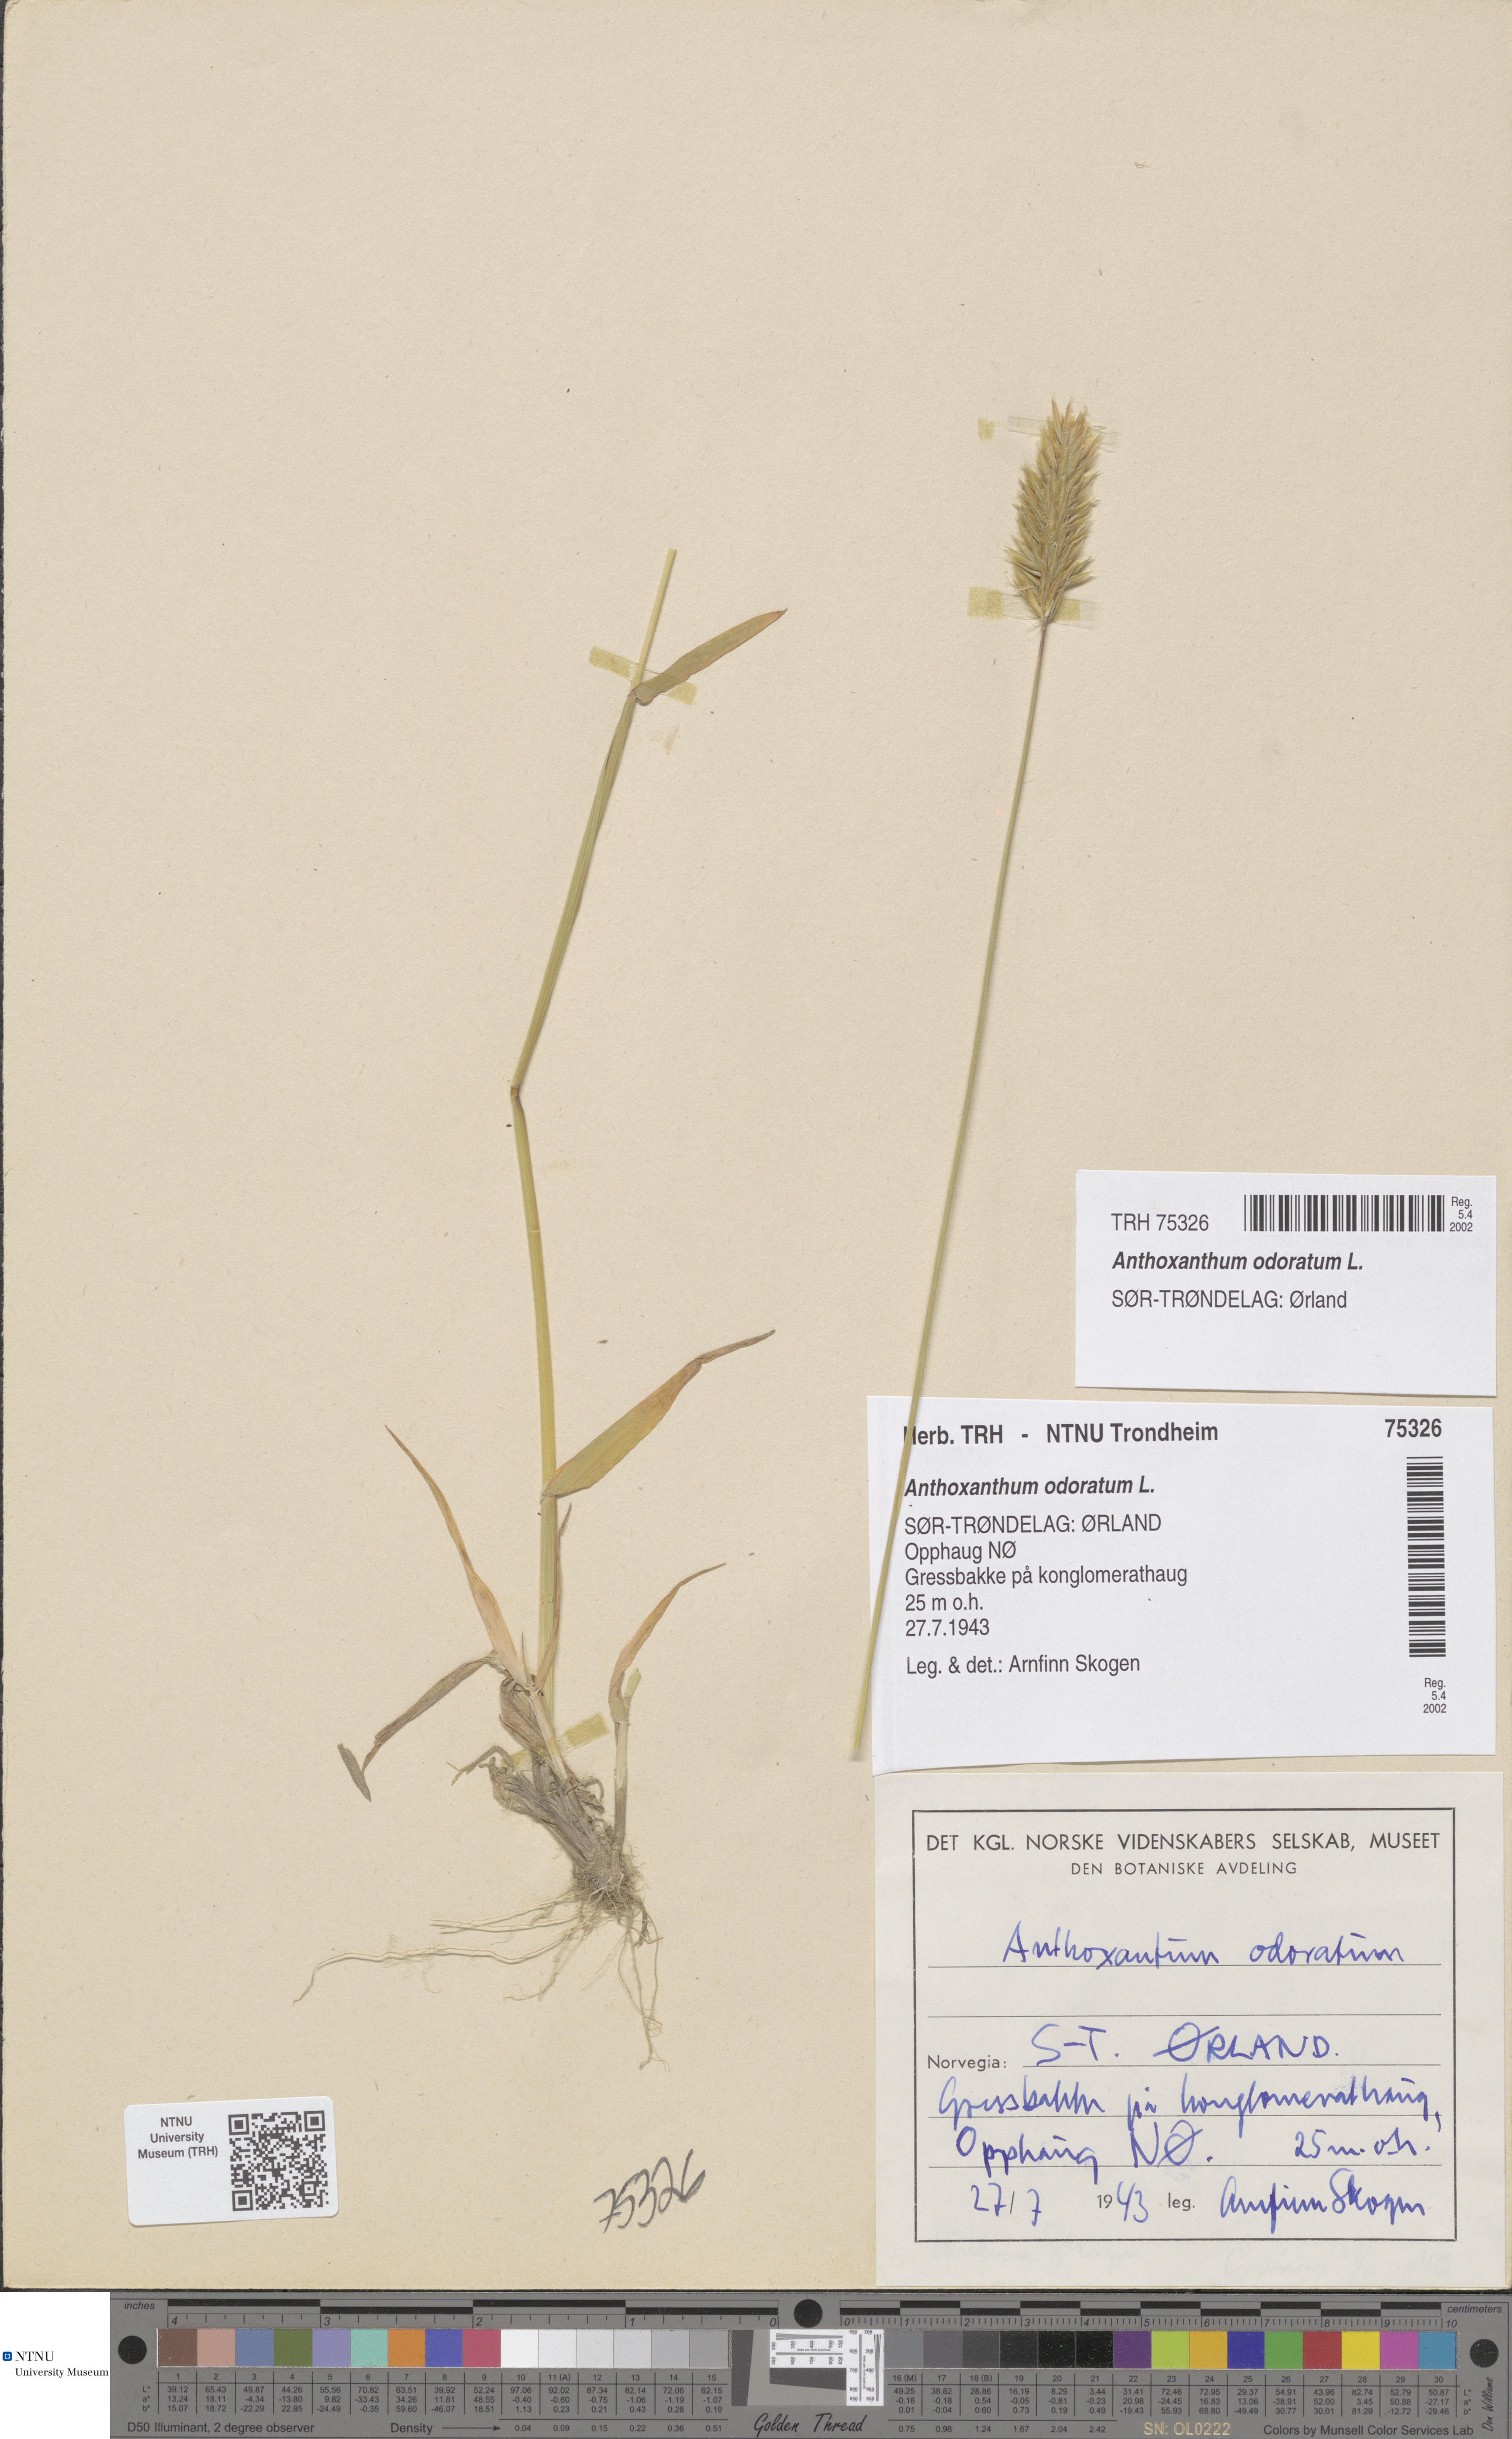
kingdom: Plantae
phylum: Tracheophyta
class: Liliopsida
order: Poales
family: Poaceae
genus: Anthoxanthum
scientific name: Anthoxanthum odoratum
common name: Sweet vernalgrass
